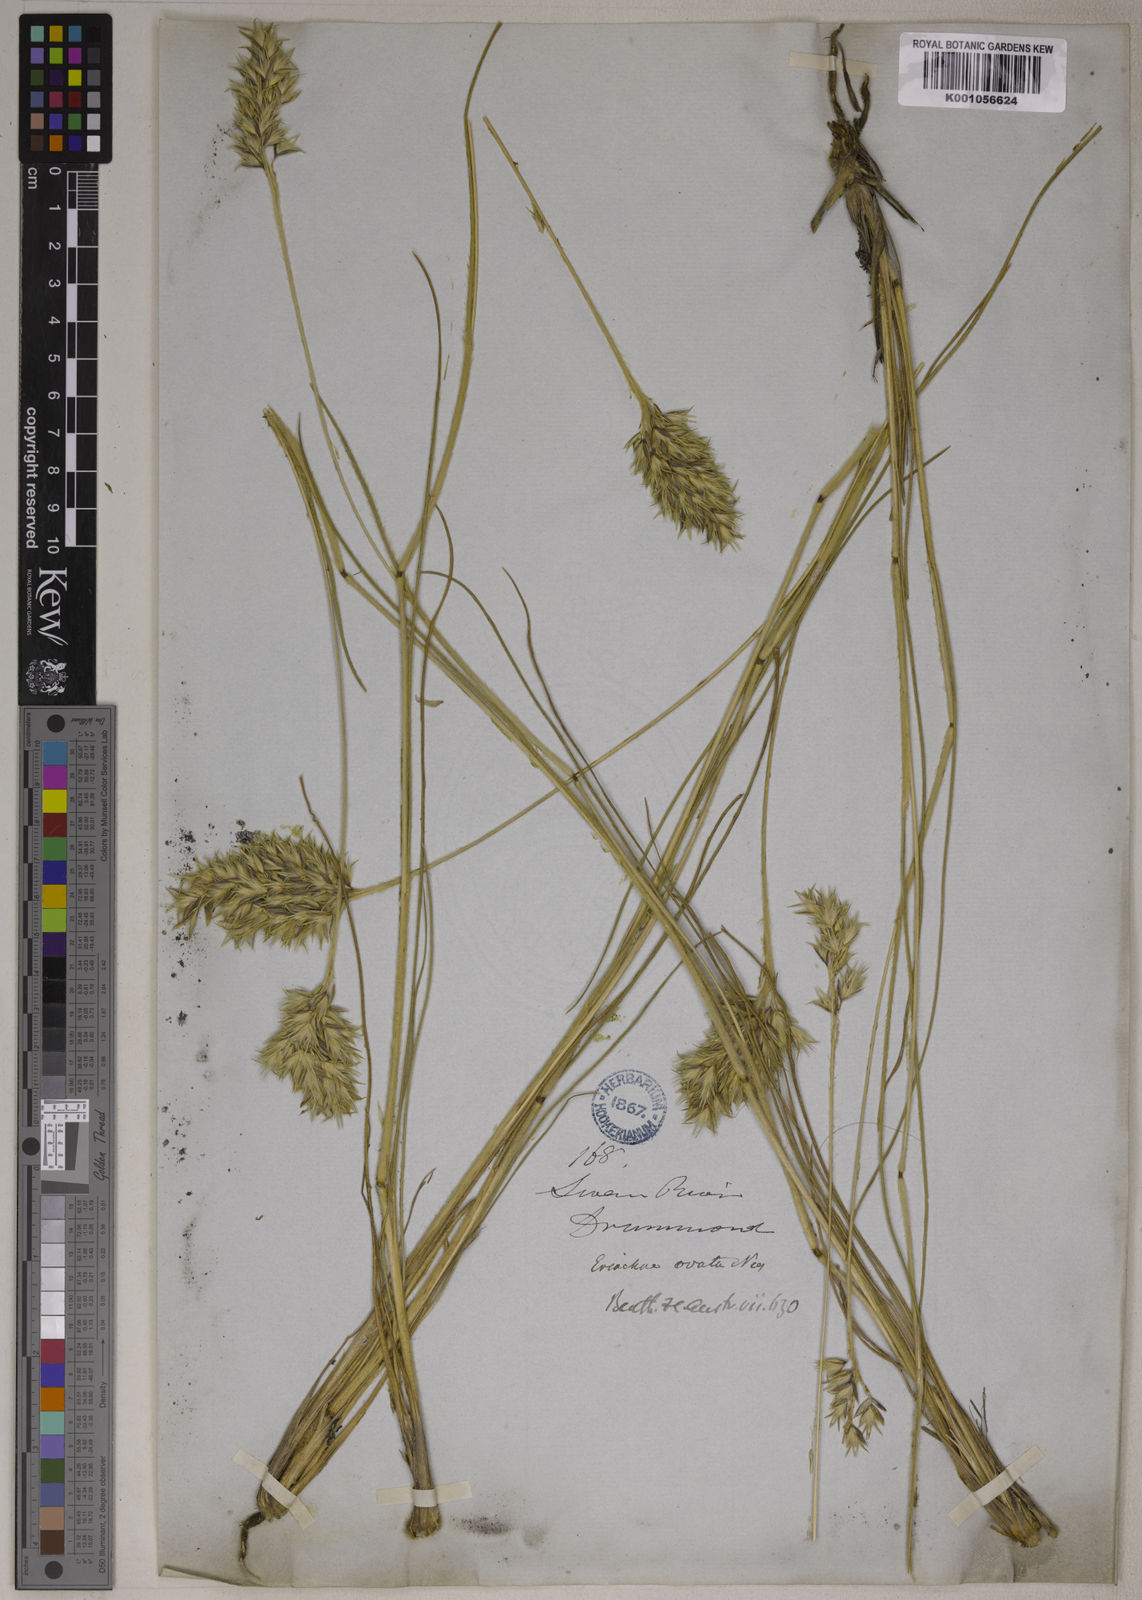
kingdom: Plantae
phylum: Tracheophyta
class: Liliopsida
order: Poales
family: Poaceae
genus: Eriachne
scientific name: Eriachne ovata
